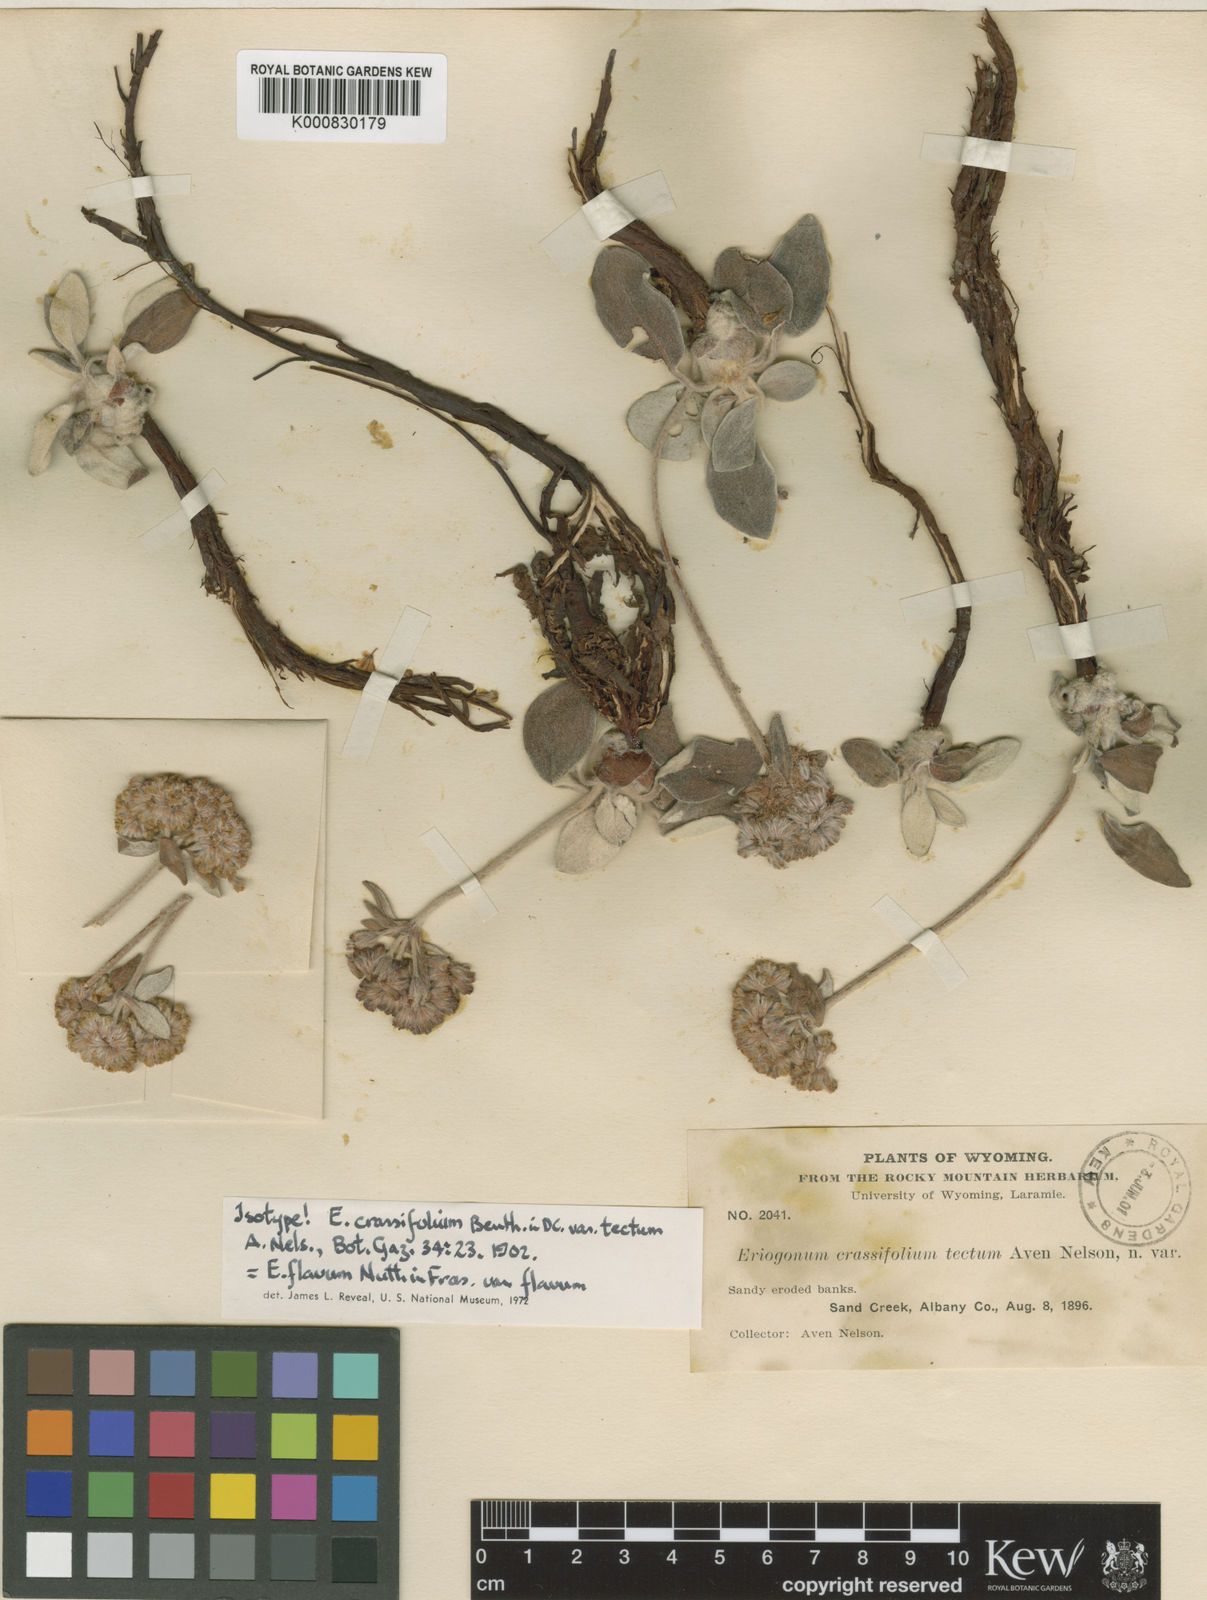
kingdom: Plantae
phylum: Tracheophyta
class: Magnoliopsida
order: Caryophyllales
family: Polygonaceae
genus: Eriogonum
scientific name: Eriogonum flavum
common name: Alpine golden wild buckwheat
